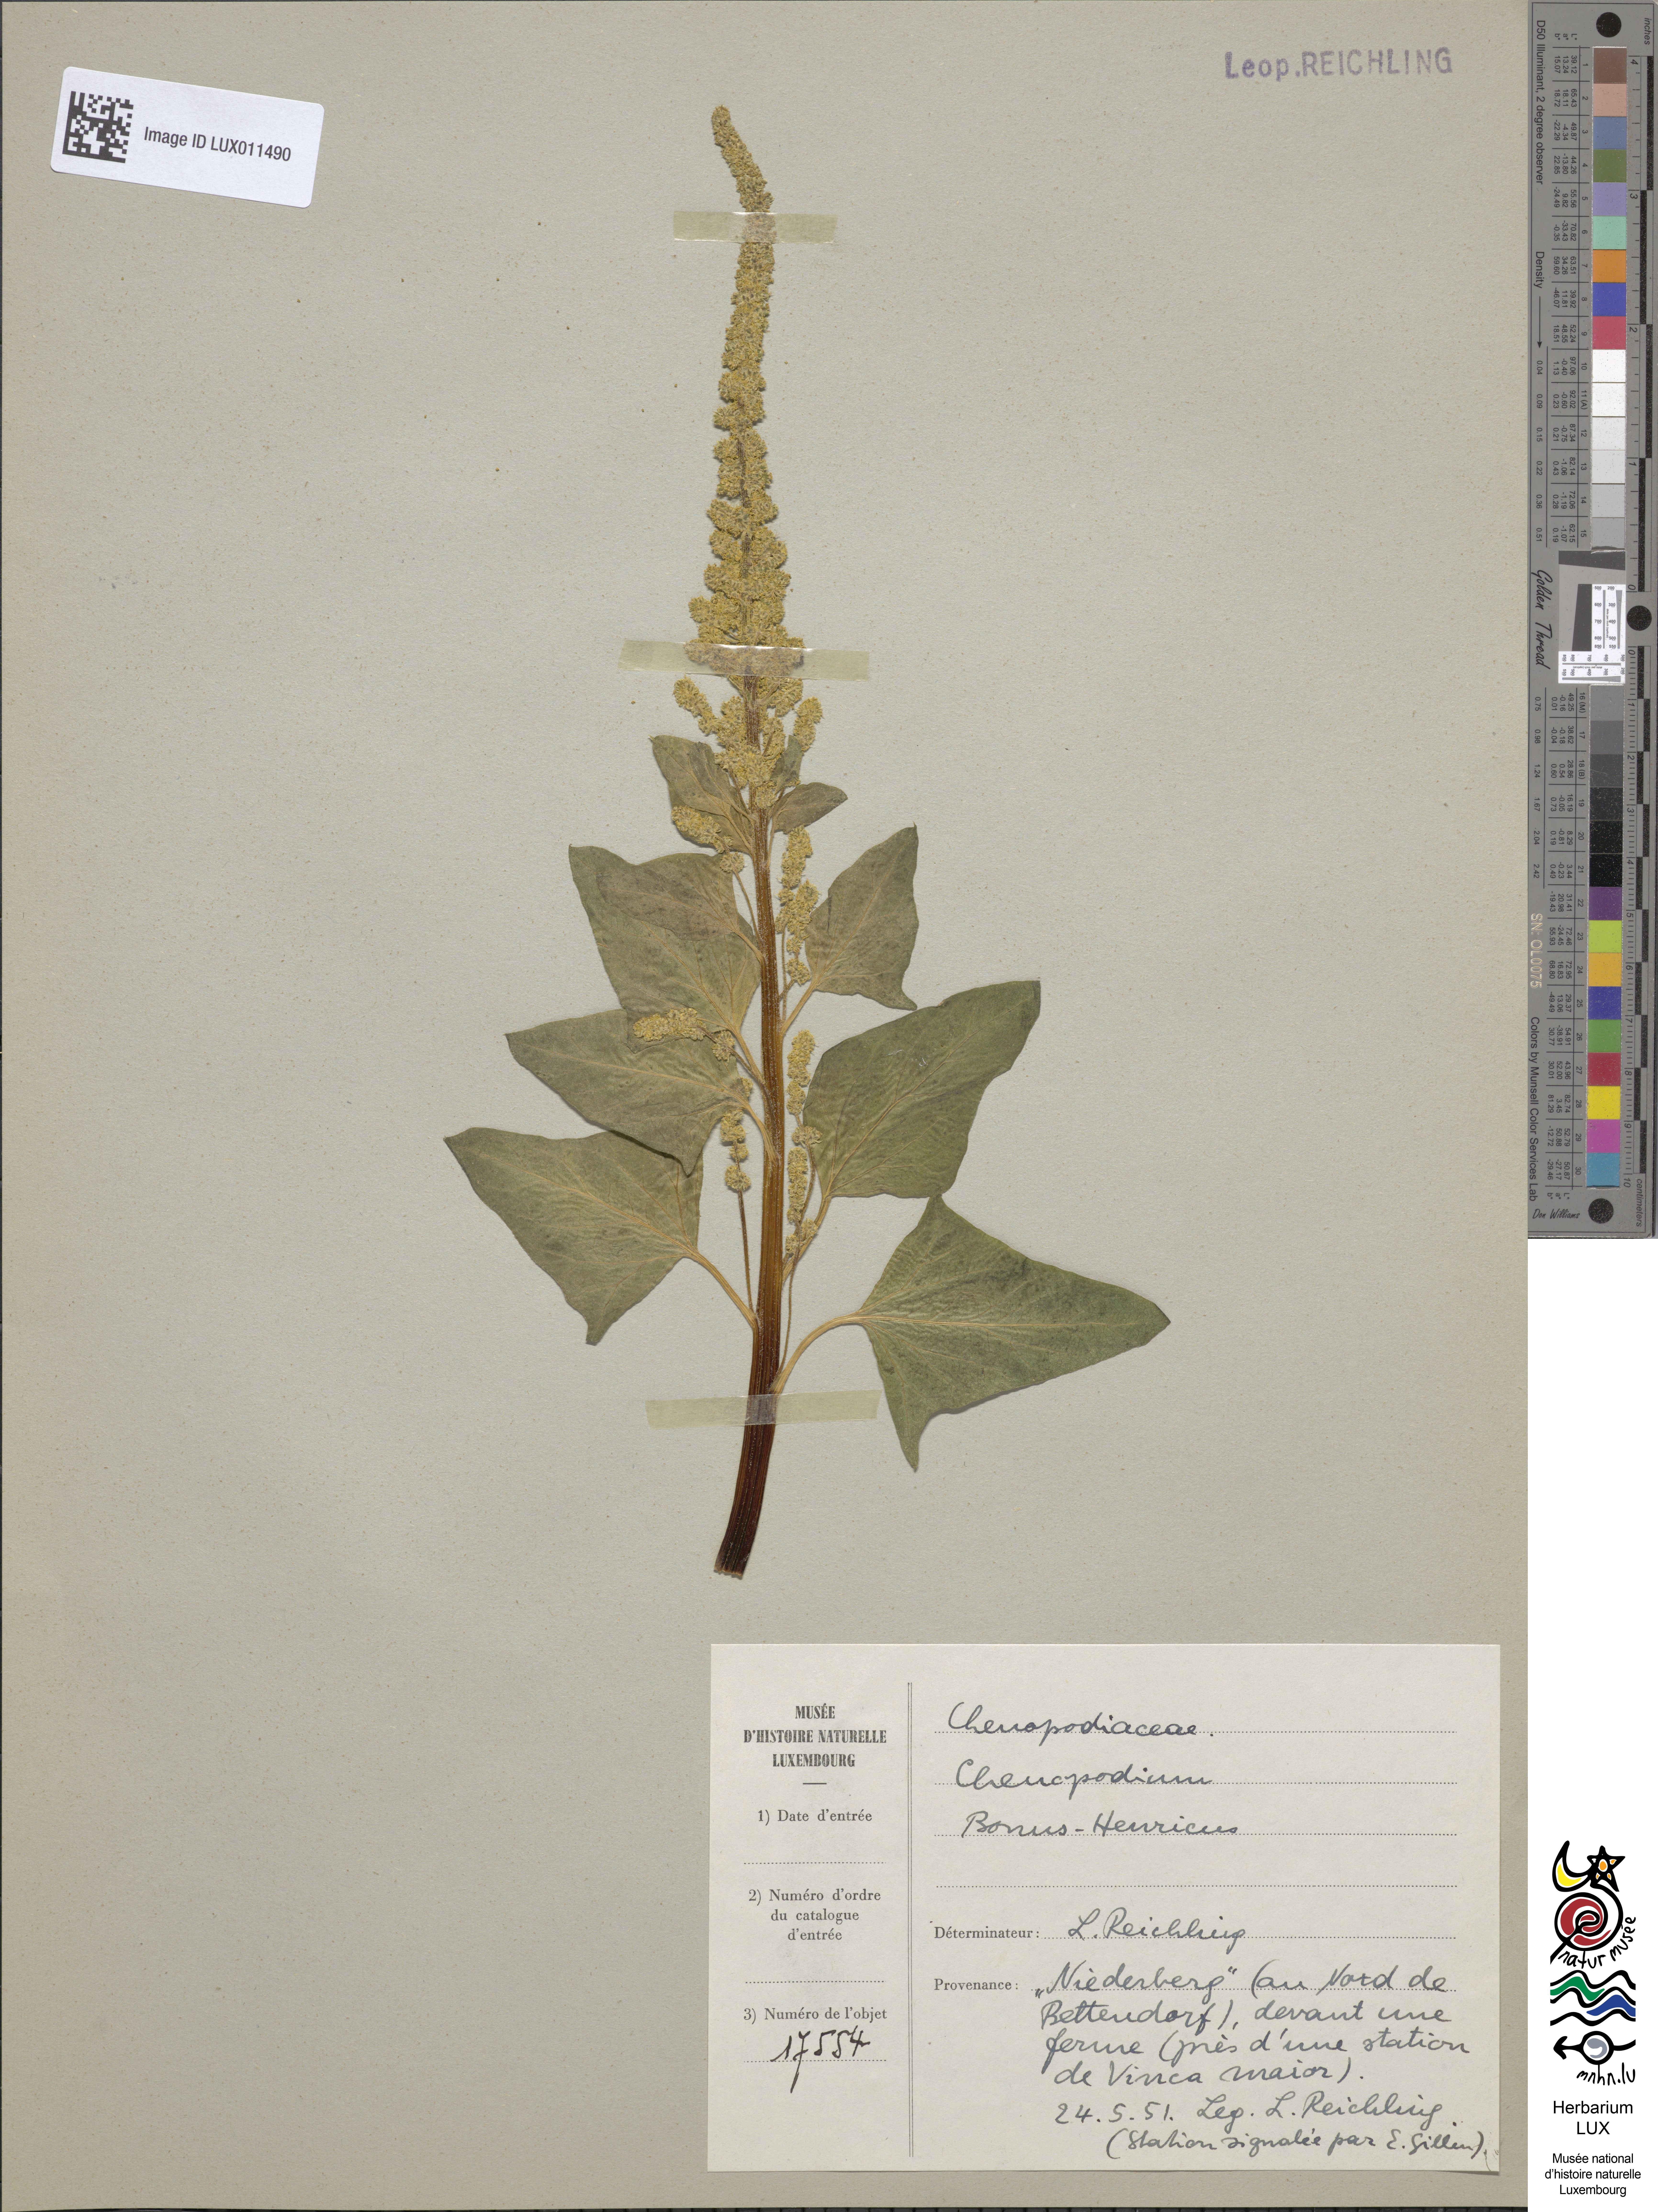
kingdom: Plantae
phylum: Tracheophyta
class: Magnoliopsida
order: Caryophyllales
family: Amaranthaceae
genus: Blitum
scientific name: Blitum bonus-henricus
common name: Good king henry
